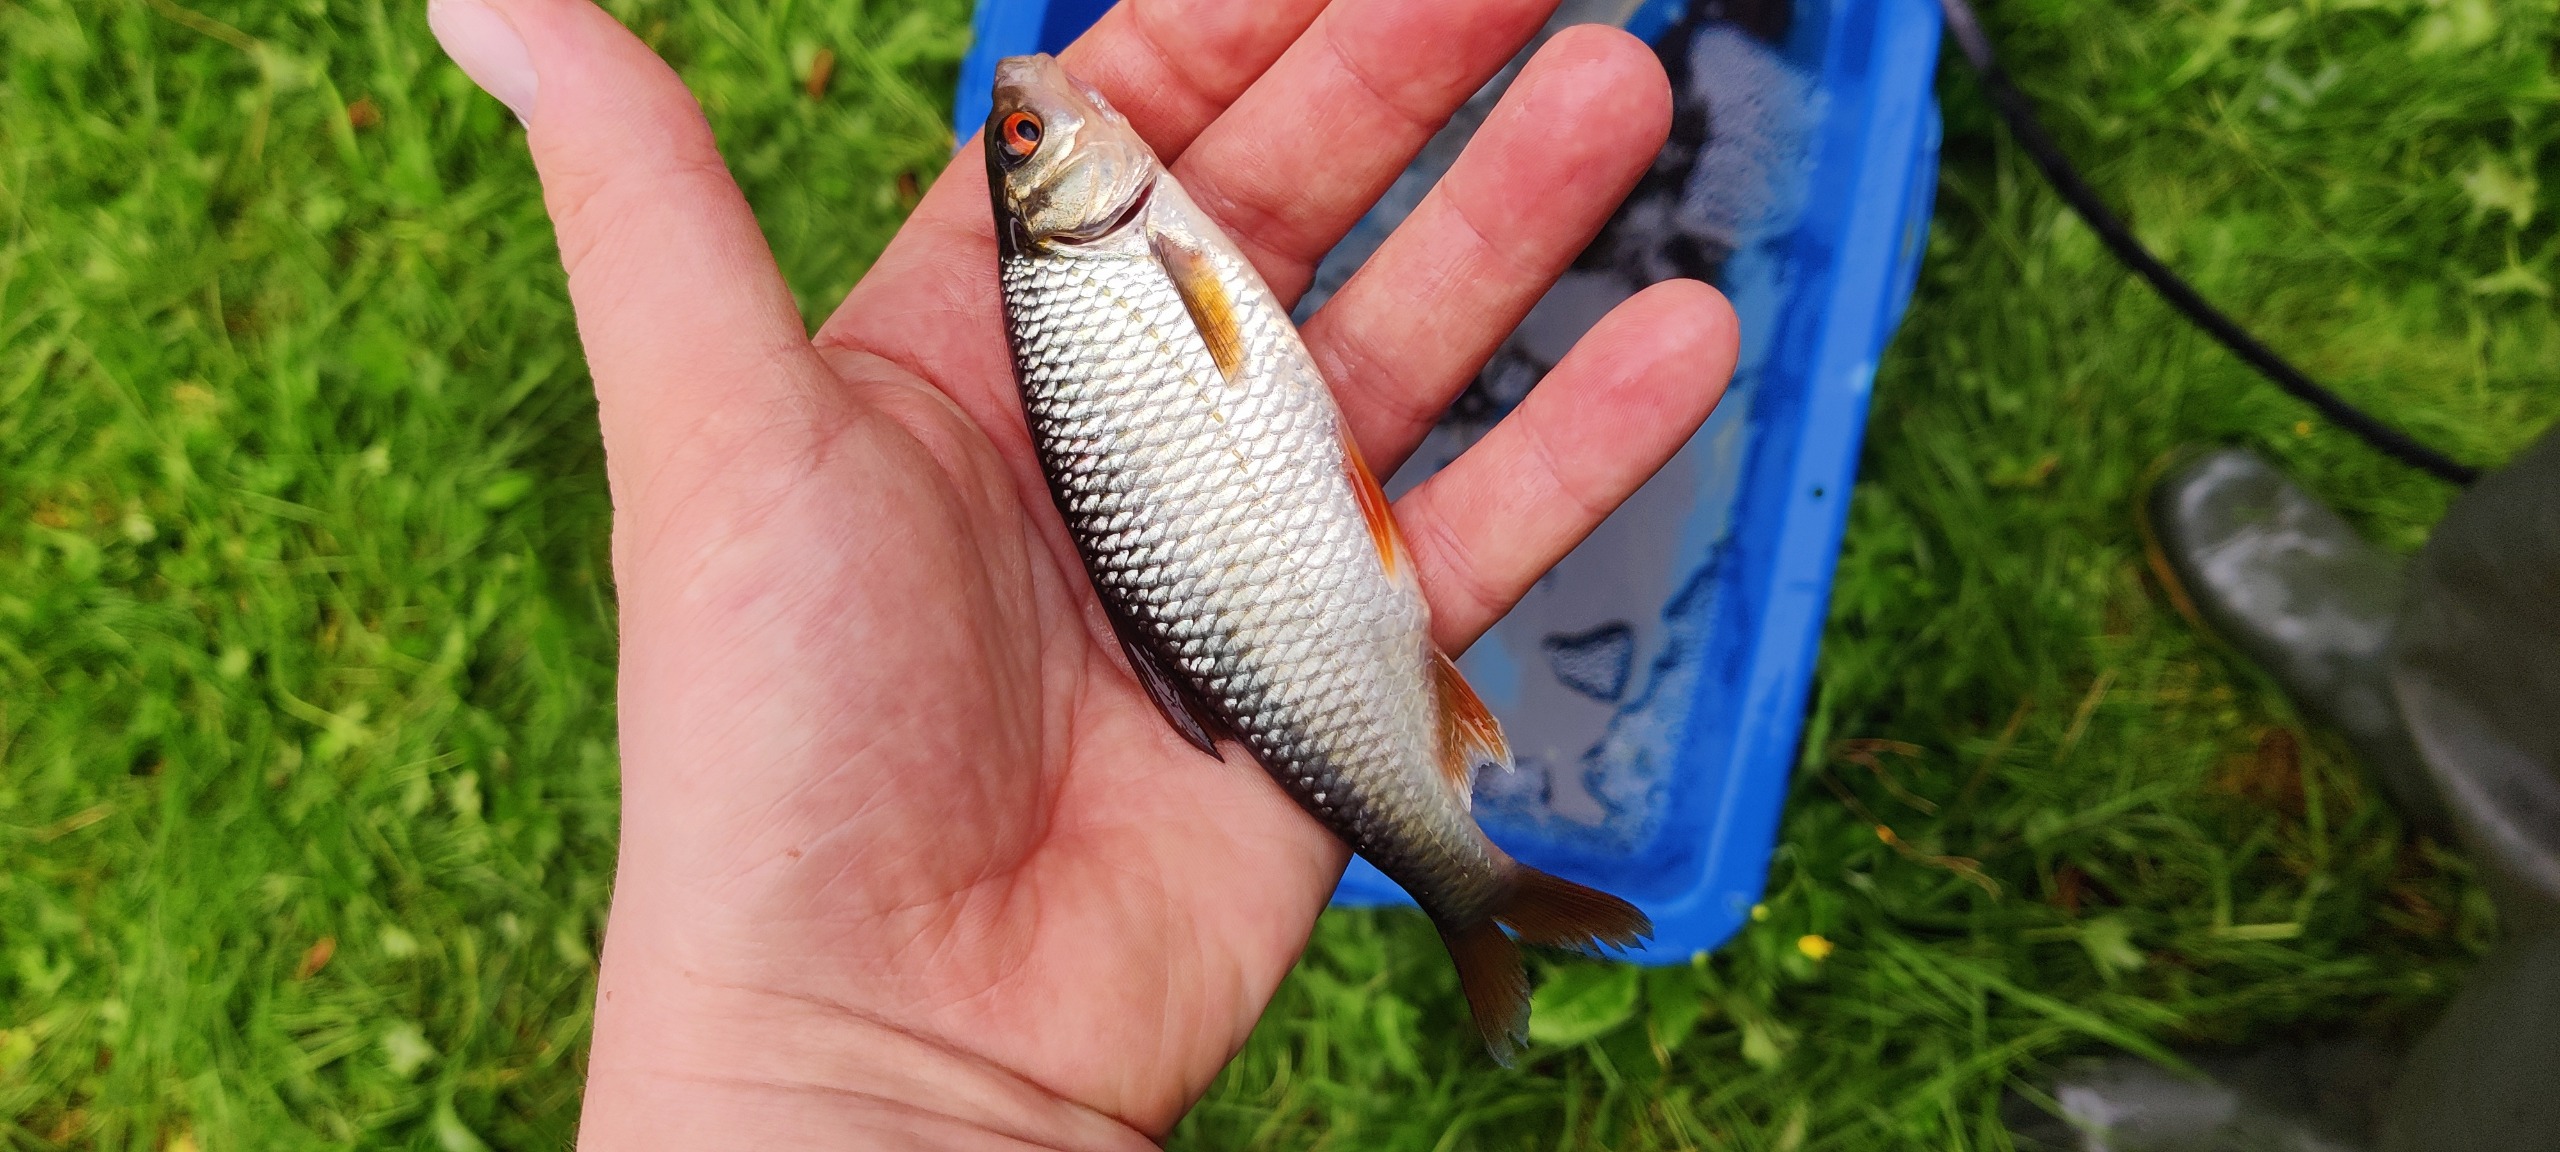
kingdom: Animalia
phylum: Chordata
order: Cypriniformes
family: Cyprinidae
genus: Rutilus
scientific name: Rutilus rutilus
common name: Skalle
